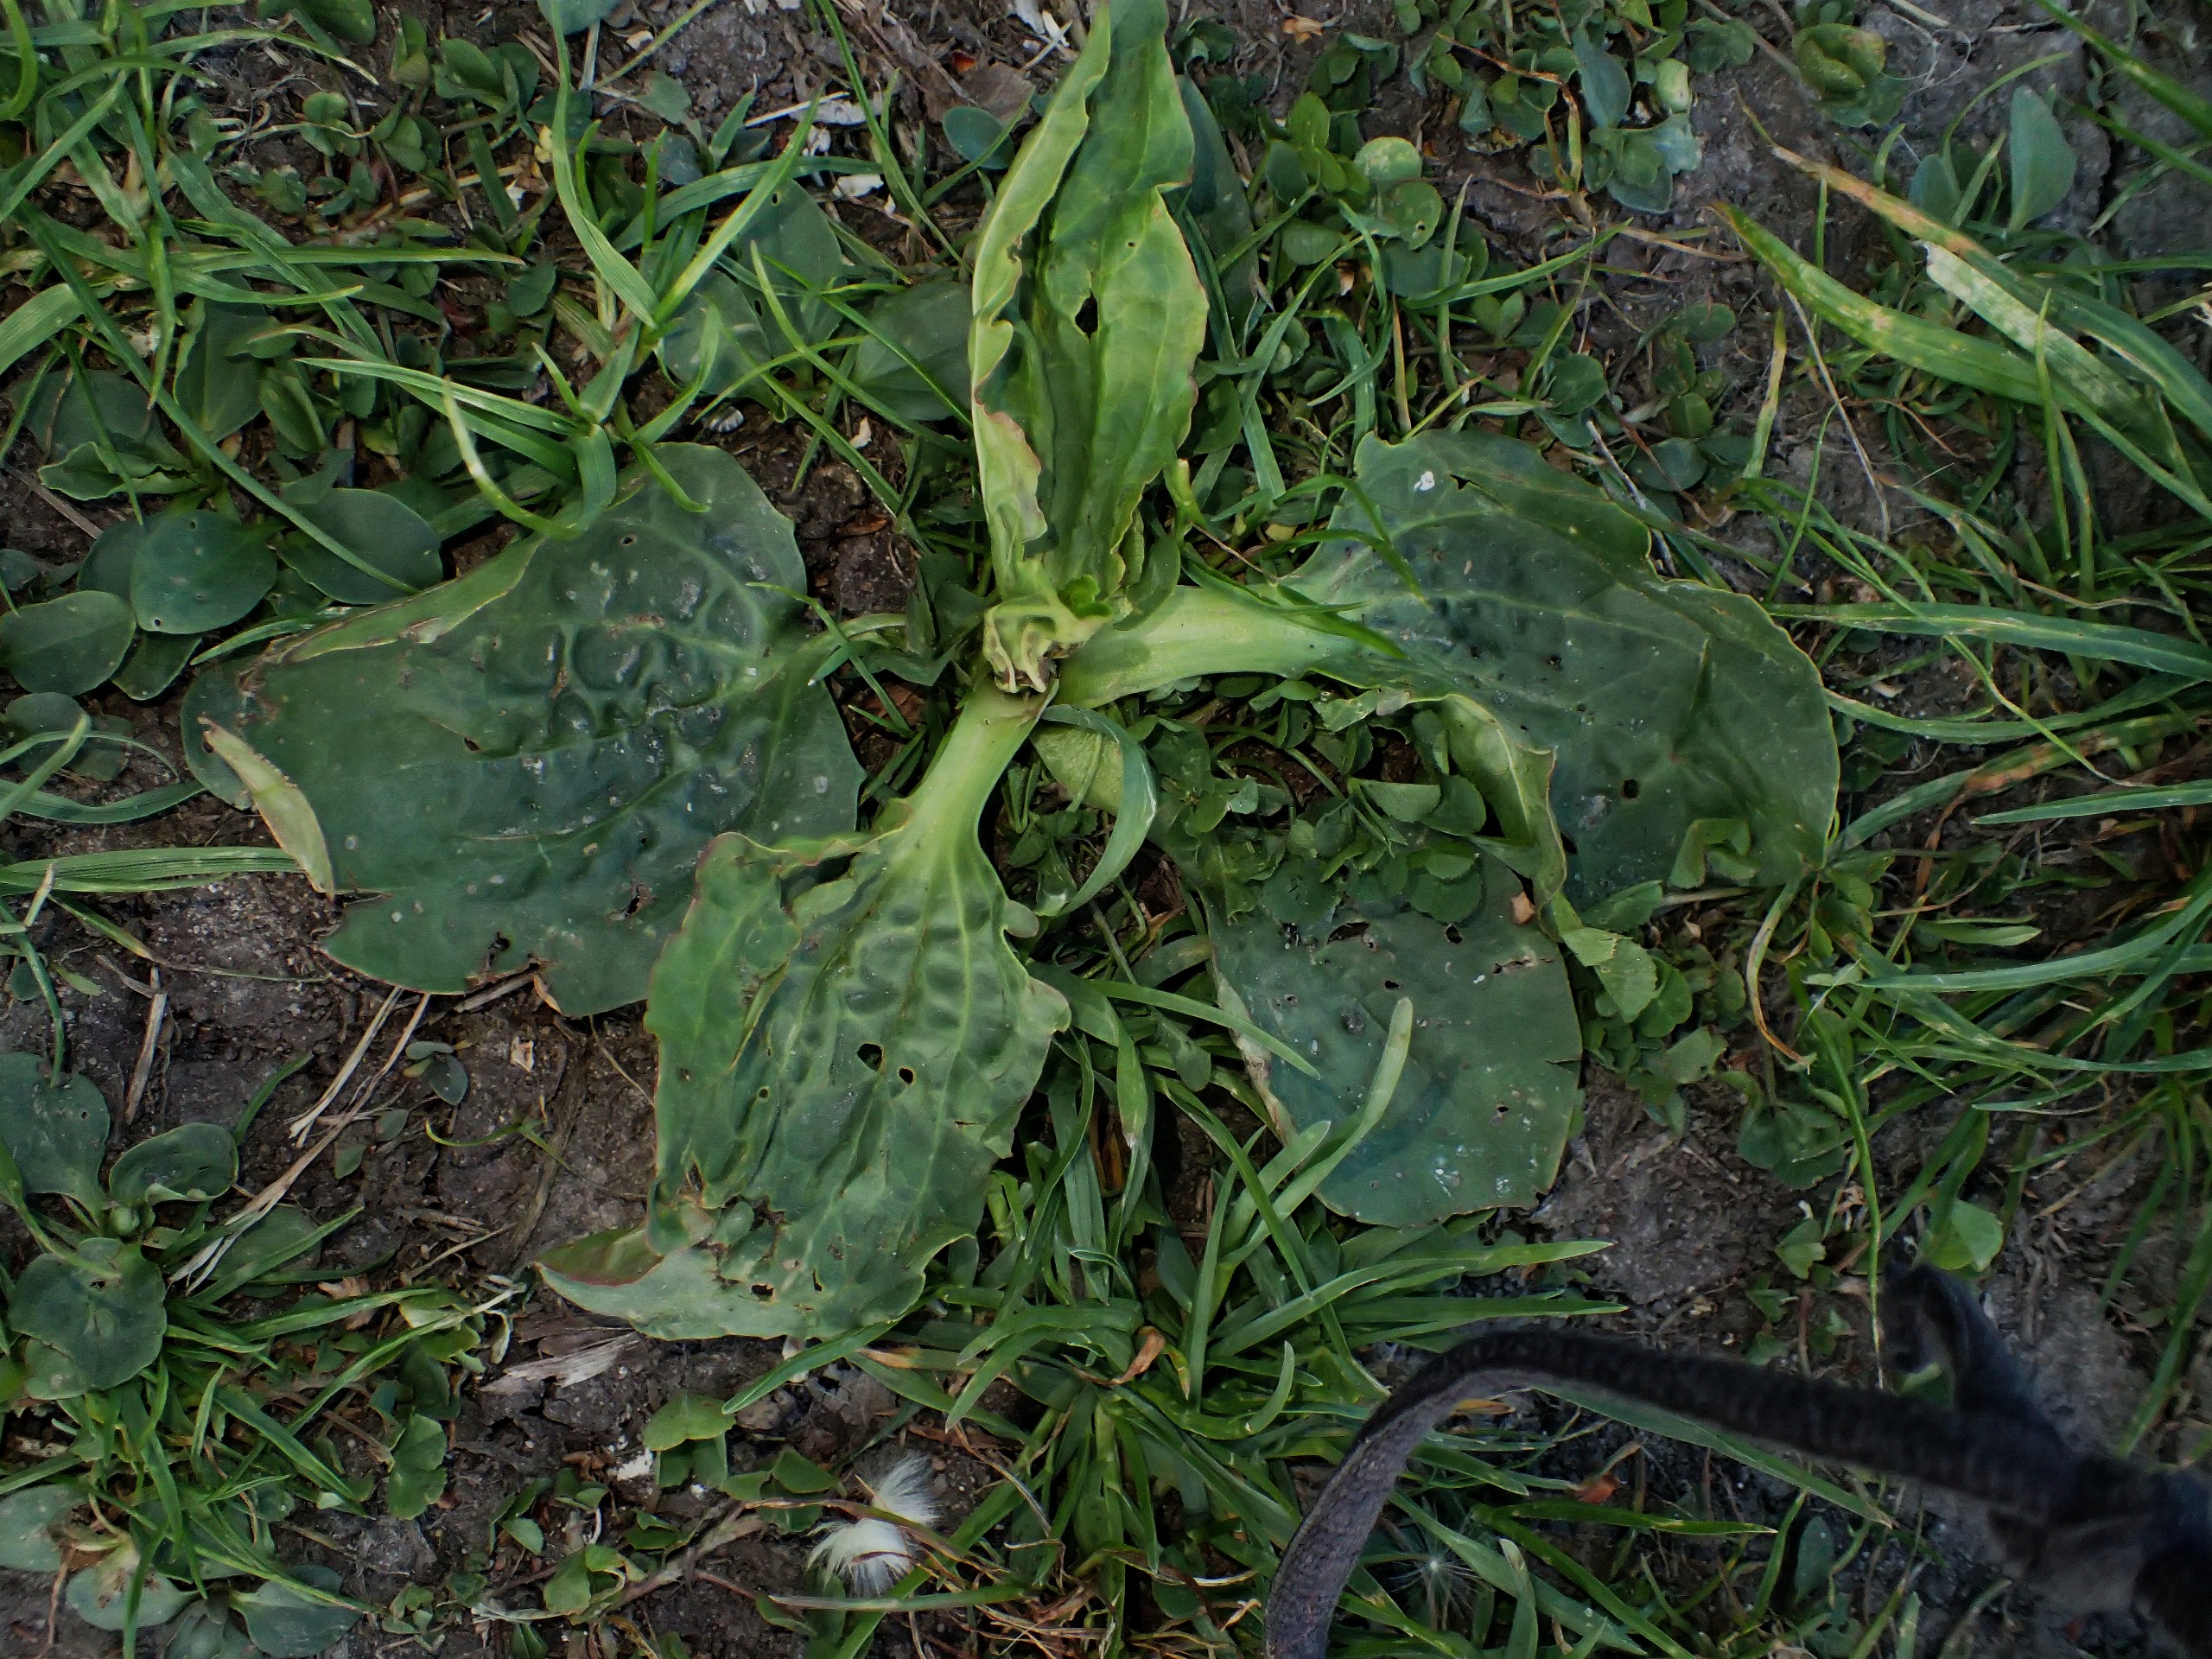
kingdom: Plantae
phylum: Tracheophyta
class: Magnoliopsida
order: Lamiales
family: Plantaginaceae
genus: Plantago
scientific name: Plantago major
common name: Glat vejbred
